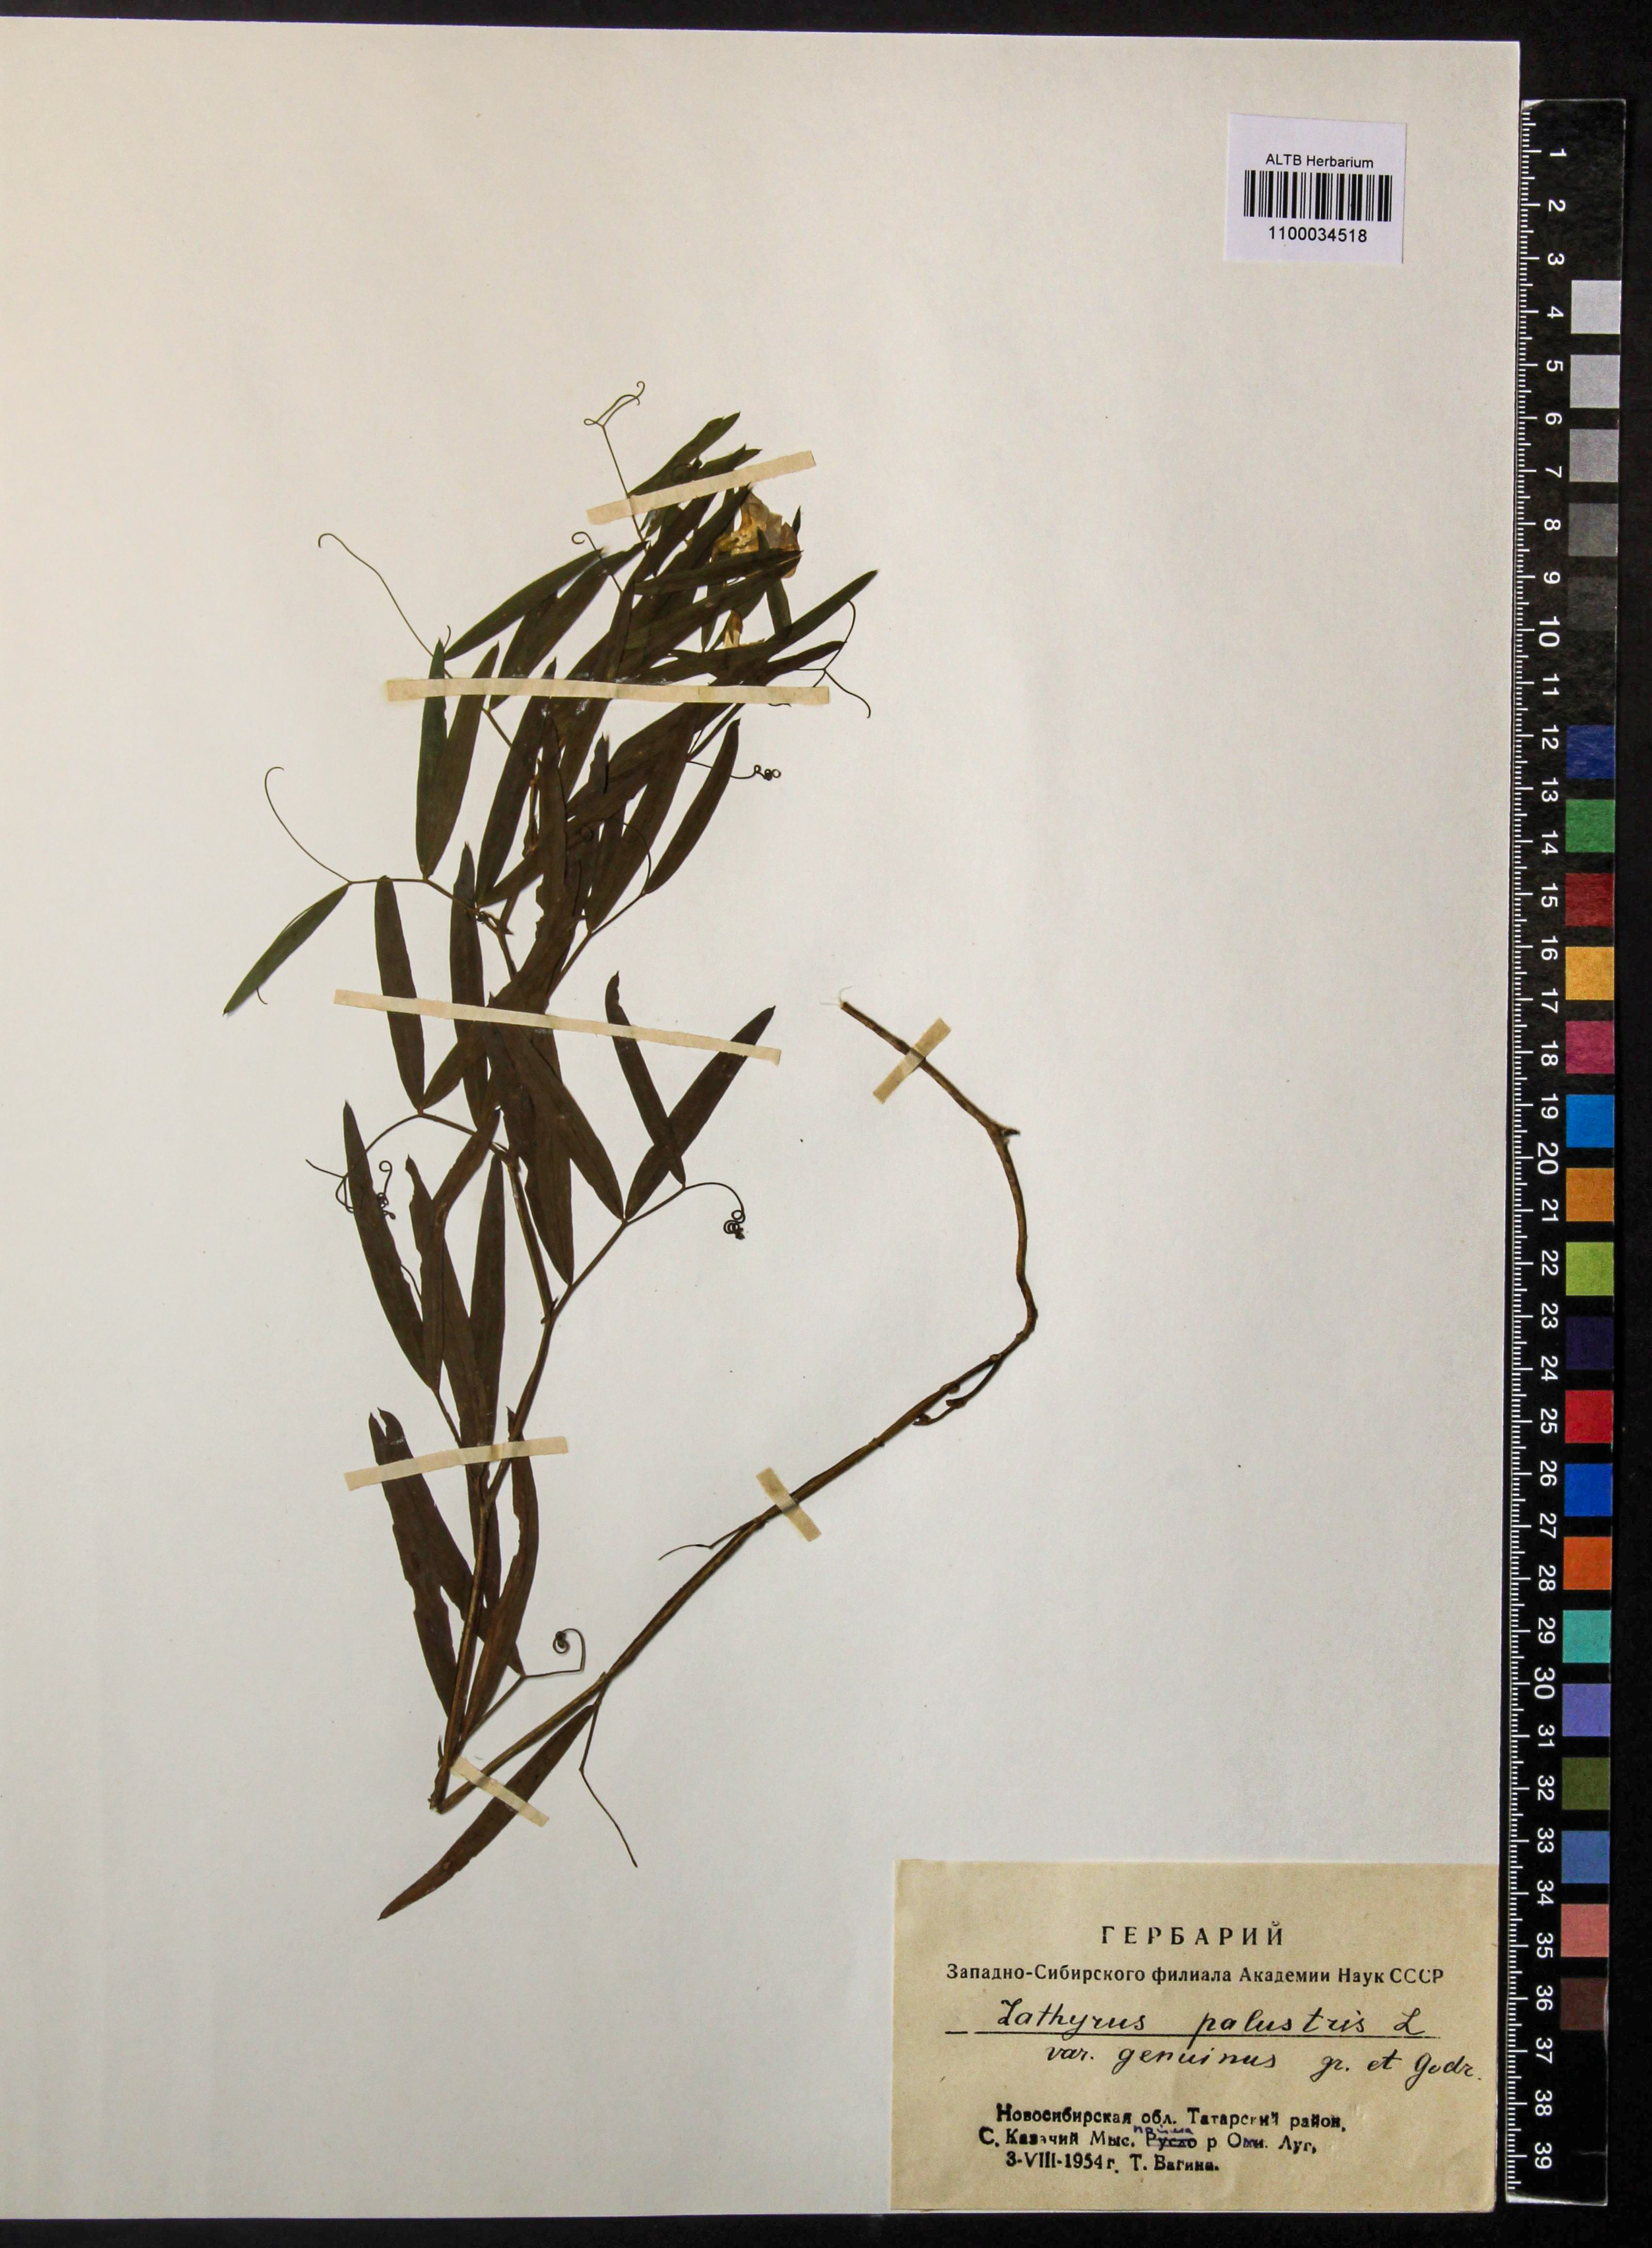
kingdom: Plantae
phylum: Tracheophyta
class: Magnoliopsida
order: Fabales
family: Fabaceae
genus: Lathyrus
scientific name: Lathyrus palustris
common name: Marsh pea
